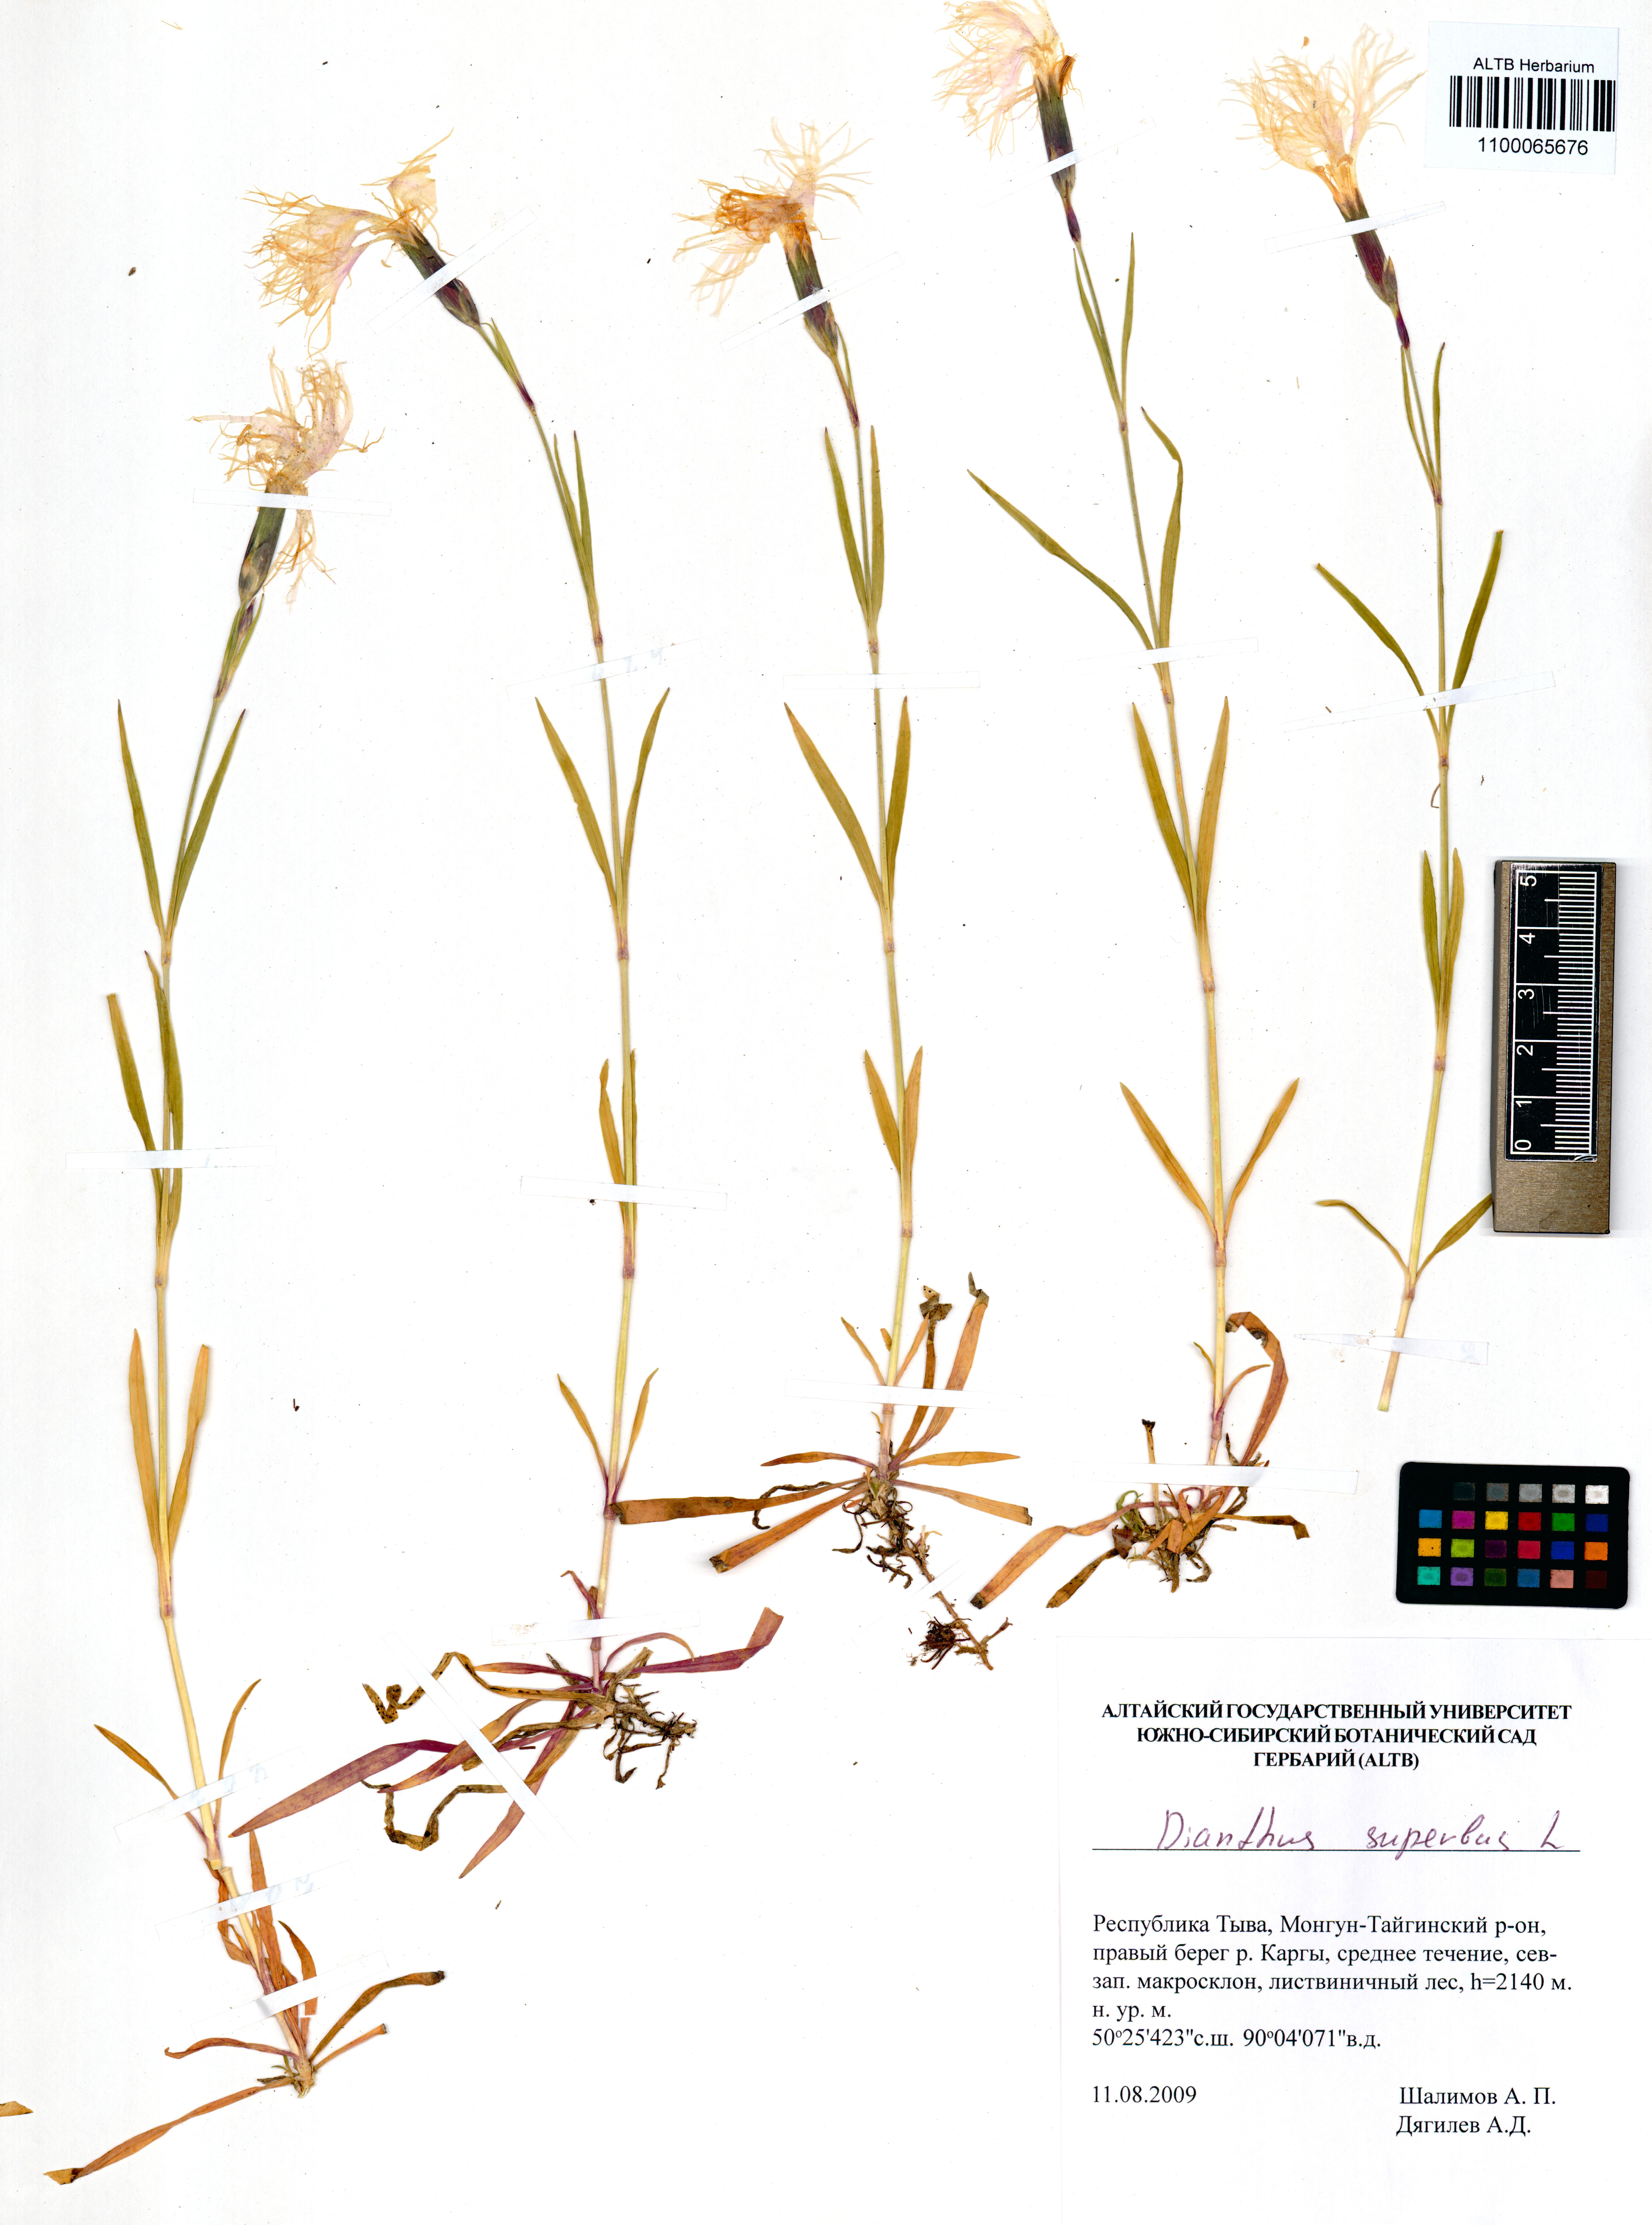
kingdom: Plantae
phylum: Tracheophyta
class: Magnoliopsida
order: Caryophyllales
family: Caryophyllaceae
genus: Dianthus
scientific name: Dianthus superbus
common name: Fringed pink
